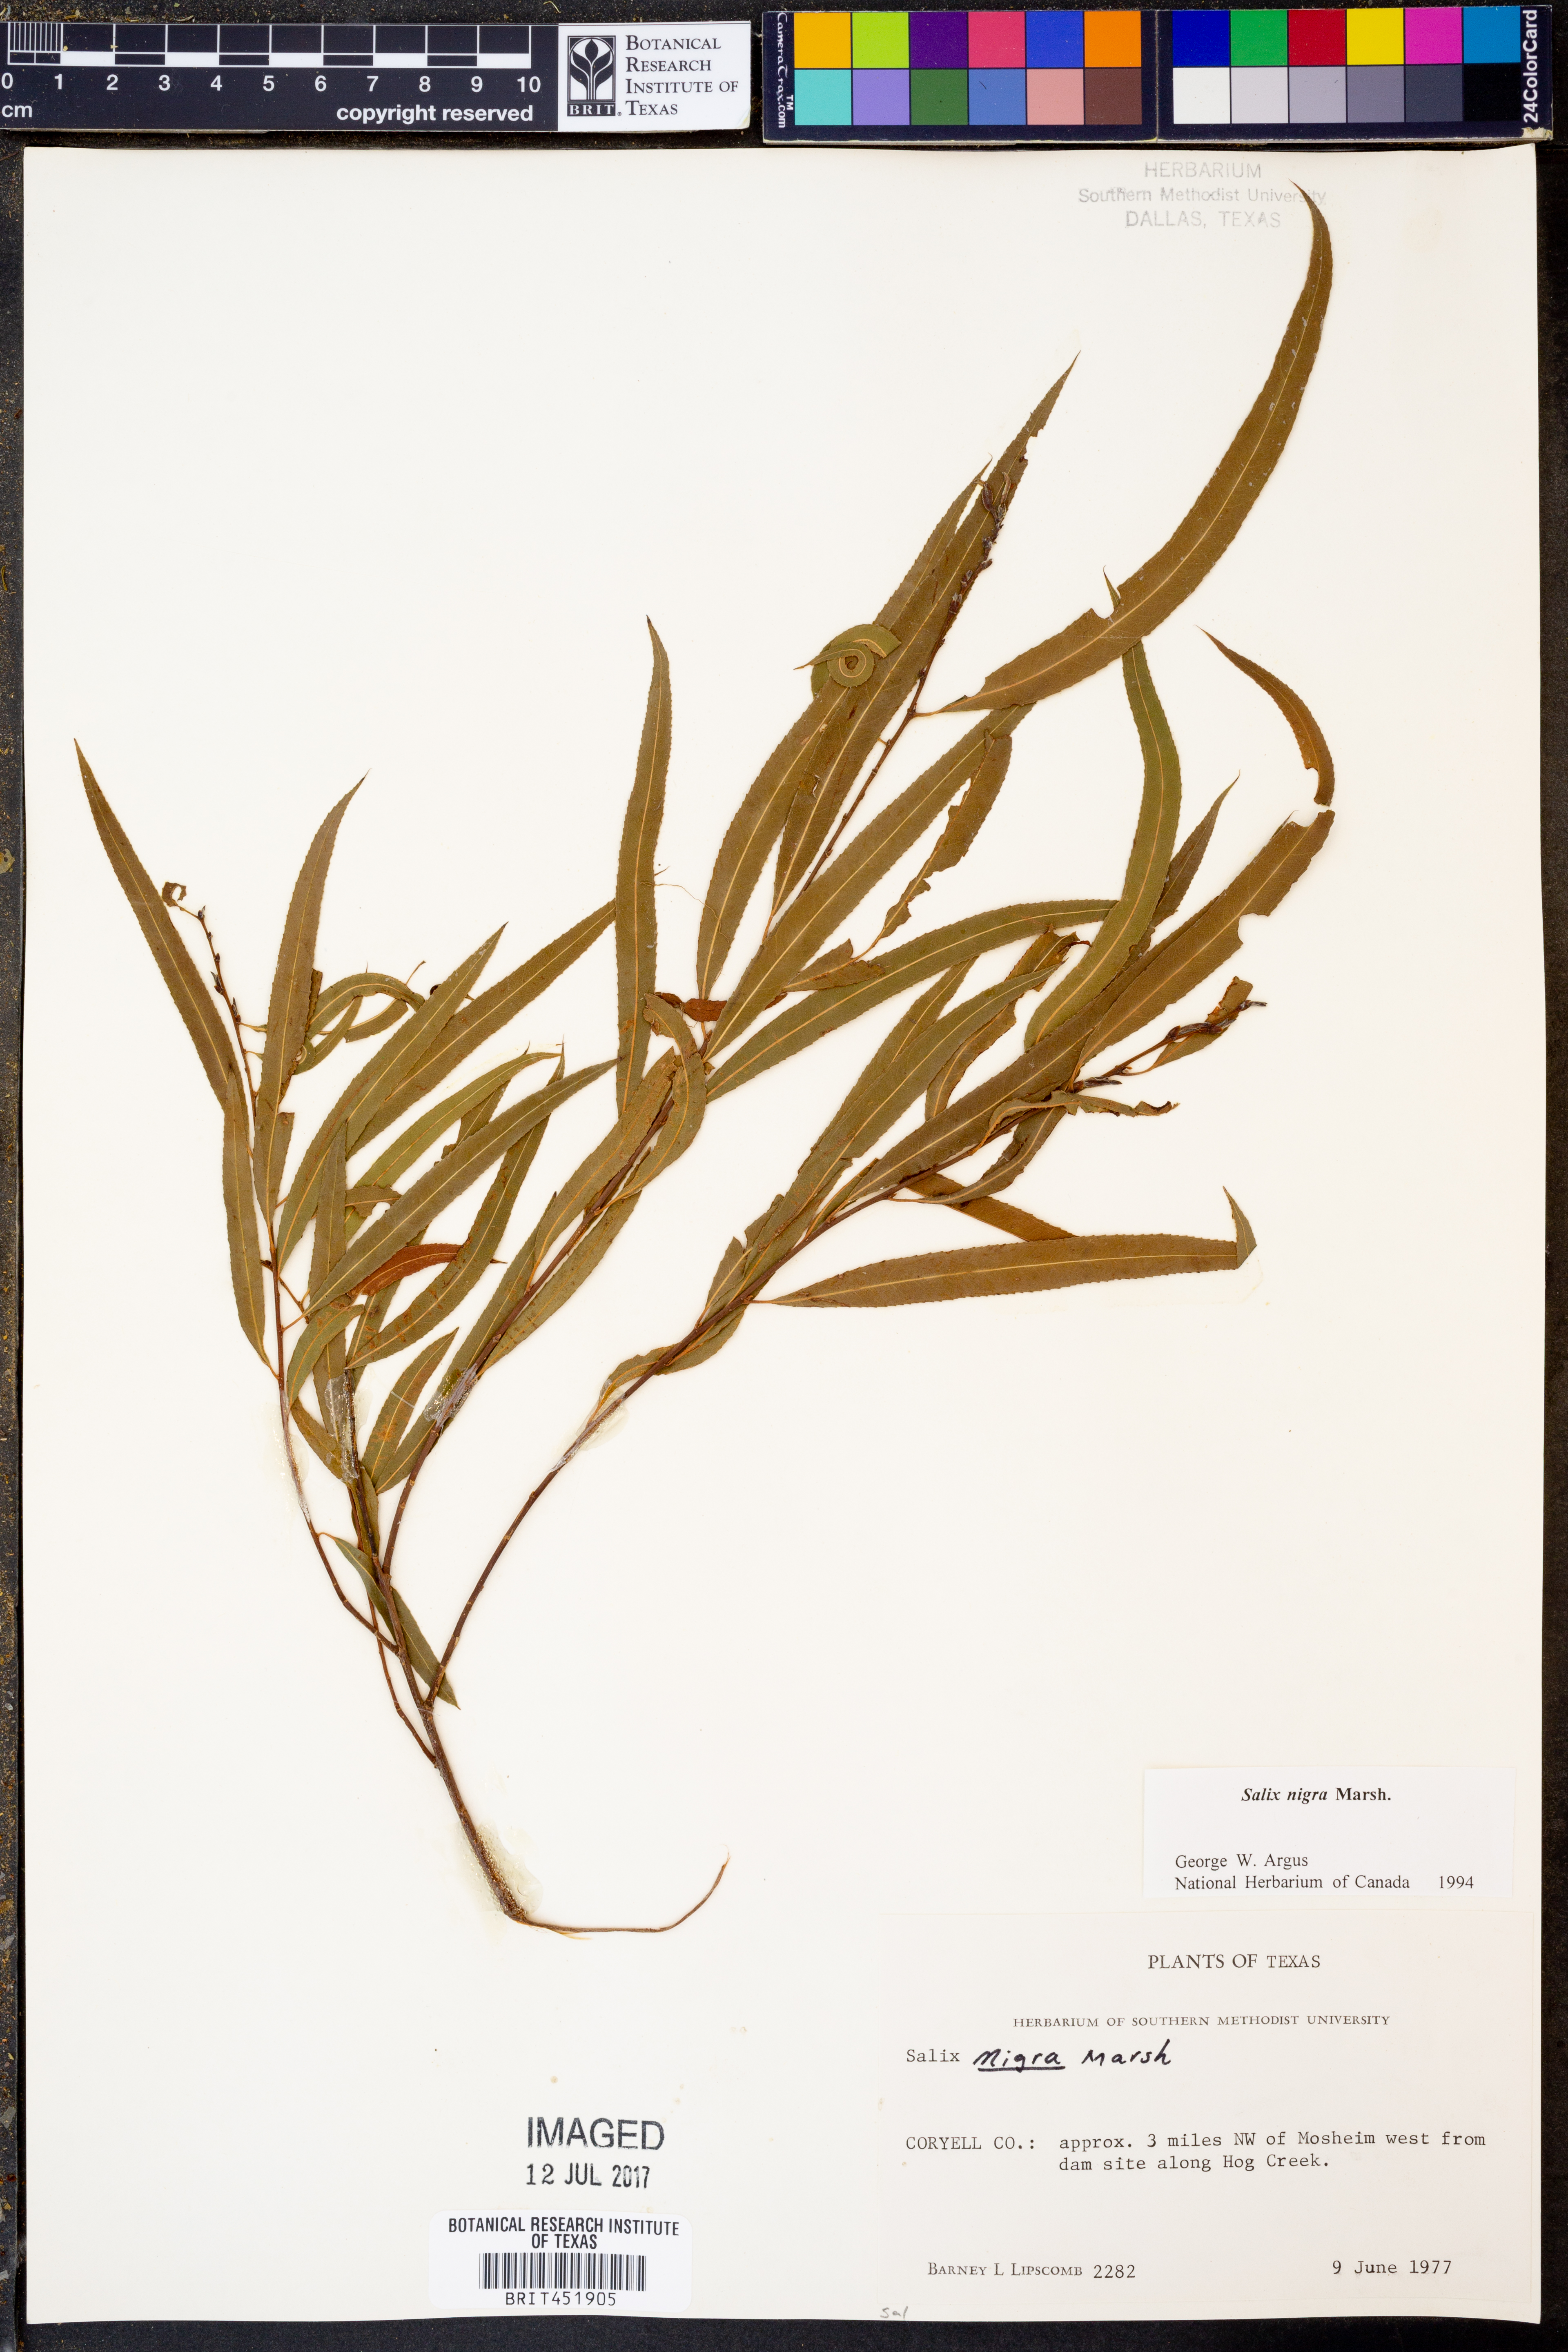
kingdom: Plantae
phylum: Tracheophyta
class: Magnoliopsida
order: Malpighiales
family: Salicaceae
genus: Salix
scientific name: Salix nigra
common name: Black willow
